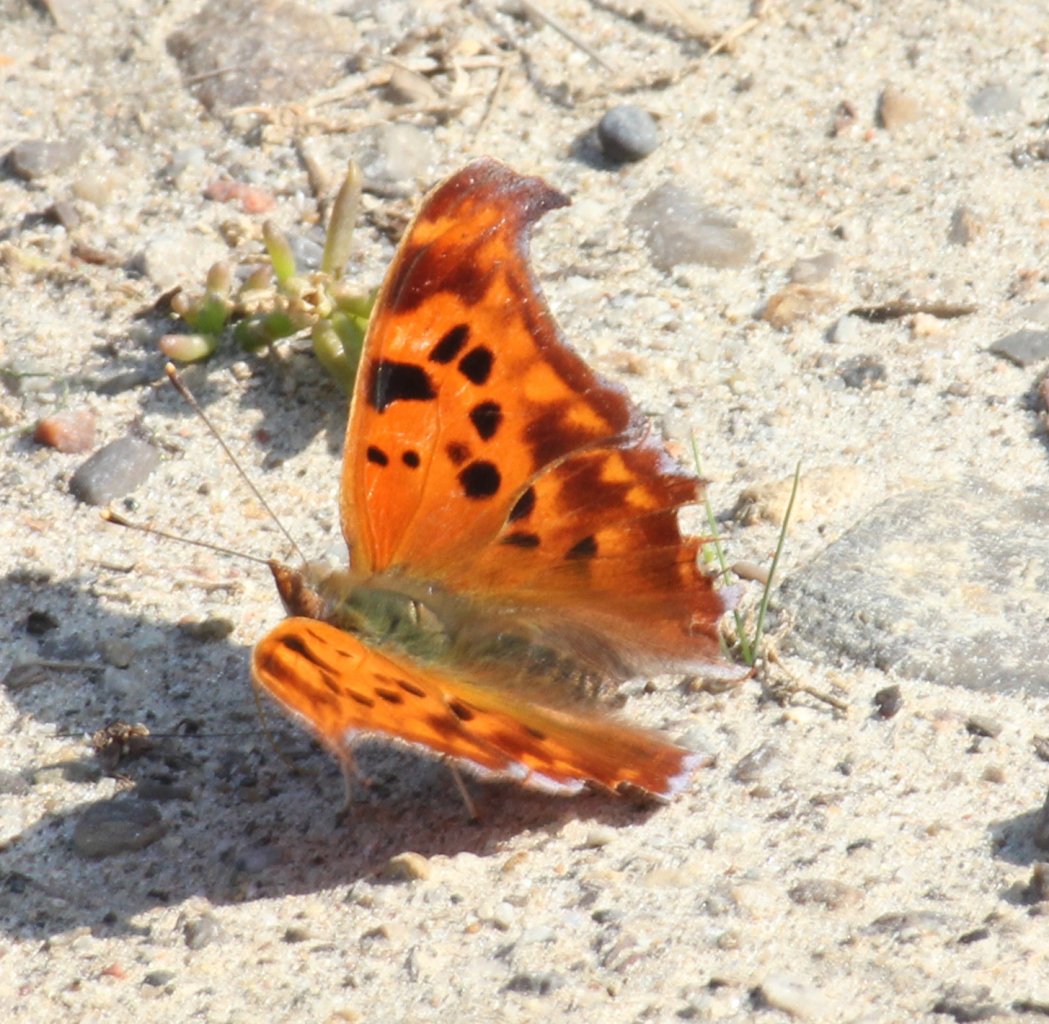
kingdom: Animalia
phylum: Arthropoda
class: Insecta
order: Lepidoptera
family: Nymphalidae
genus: Polygonia
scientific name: Polygonia interrogationis
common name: Question Mark
